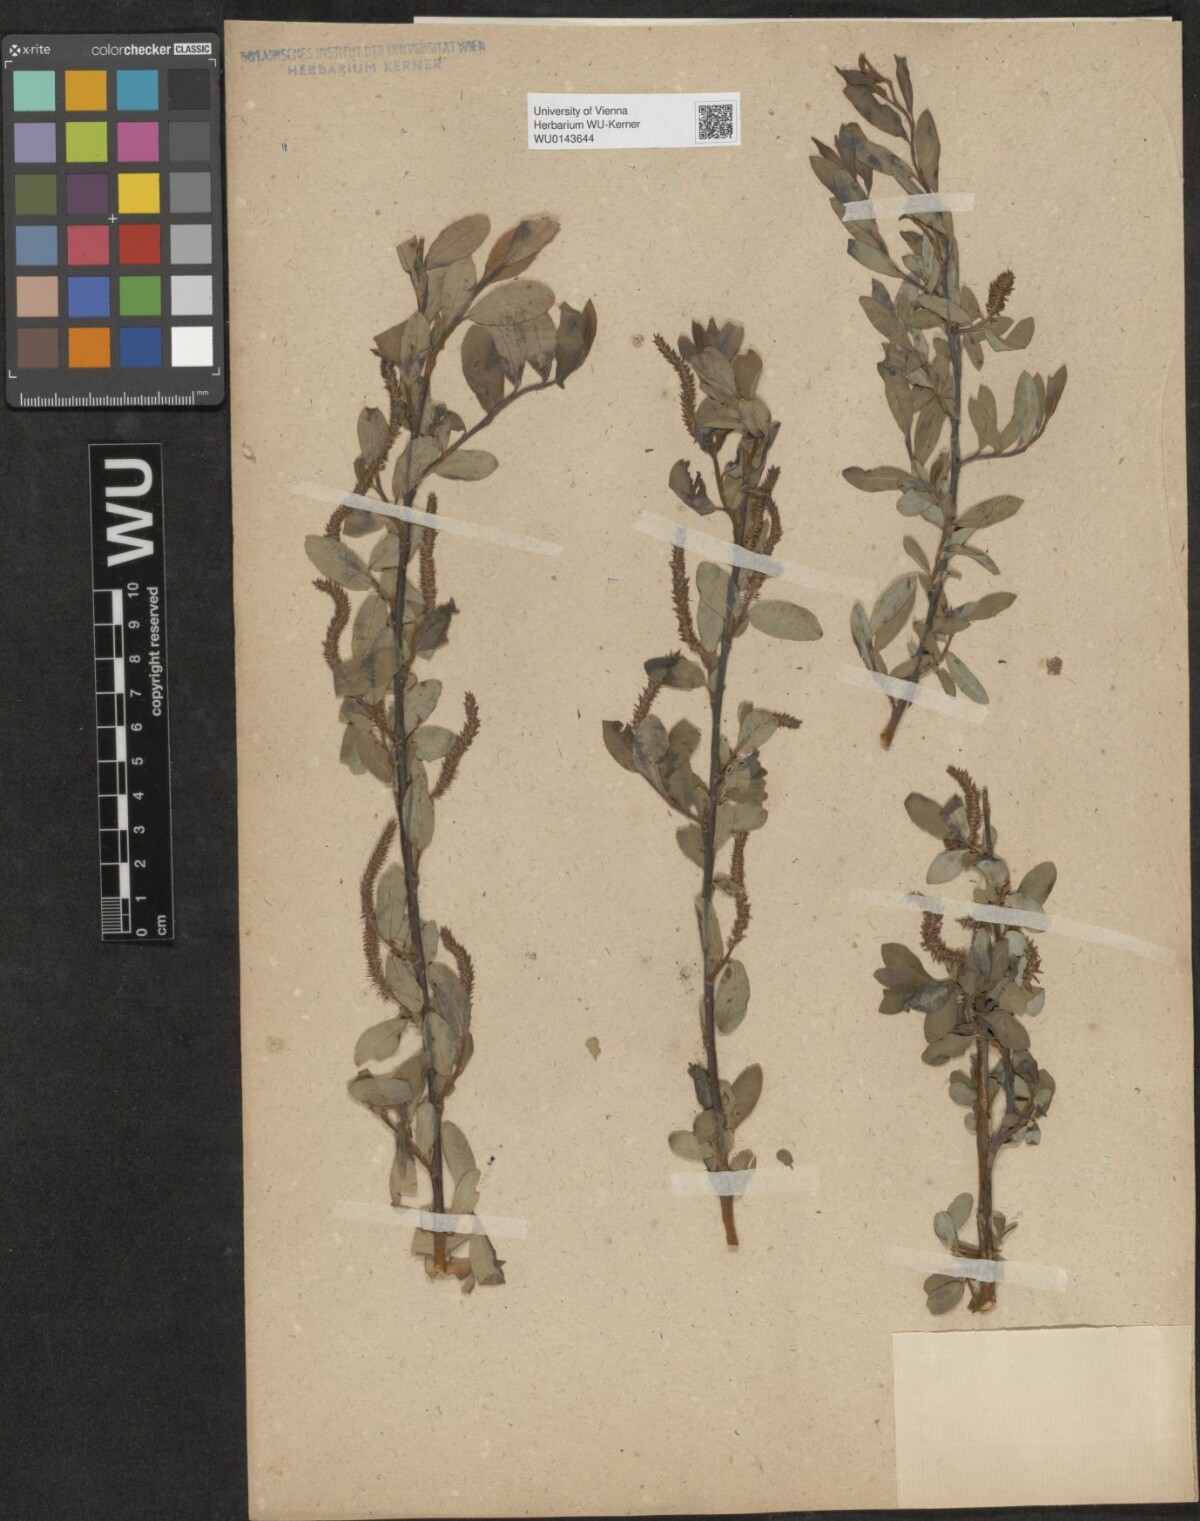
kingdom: Plantae
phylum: Tracheophyta
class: Magnoliopsida
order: Malpighiales
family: Salicaceae
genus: Salix
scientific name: Salix
